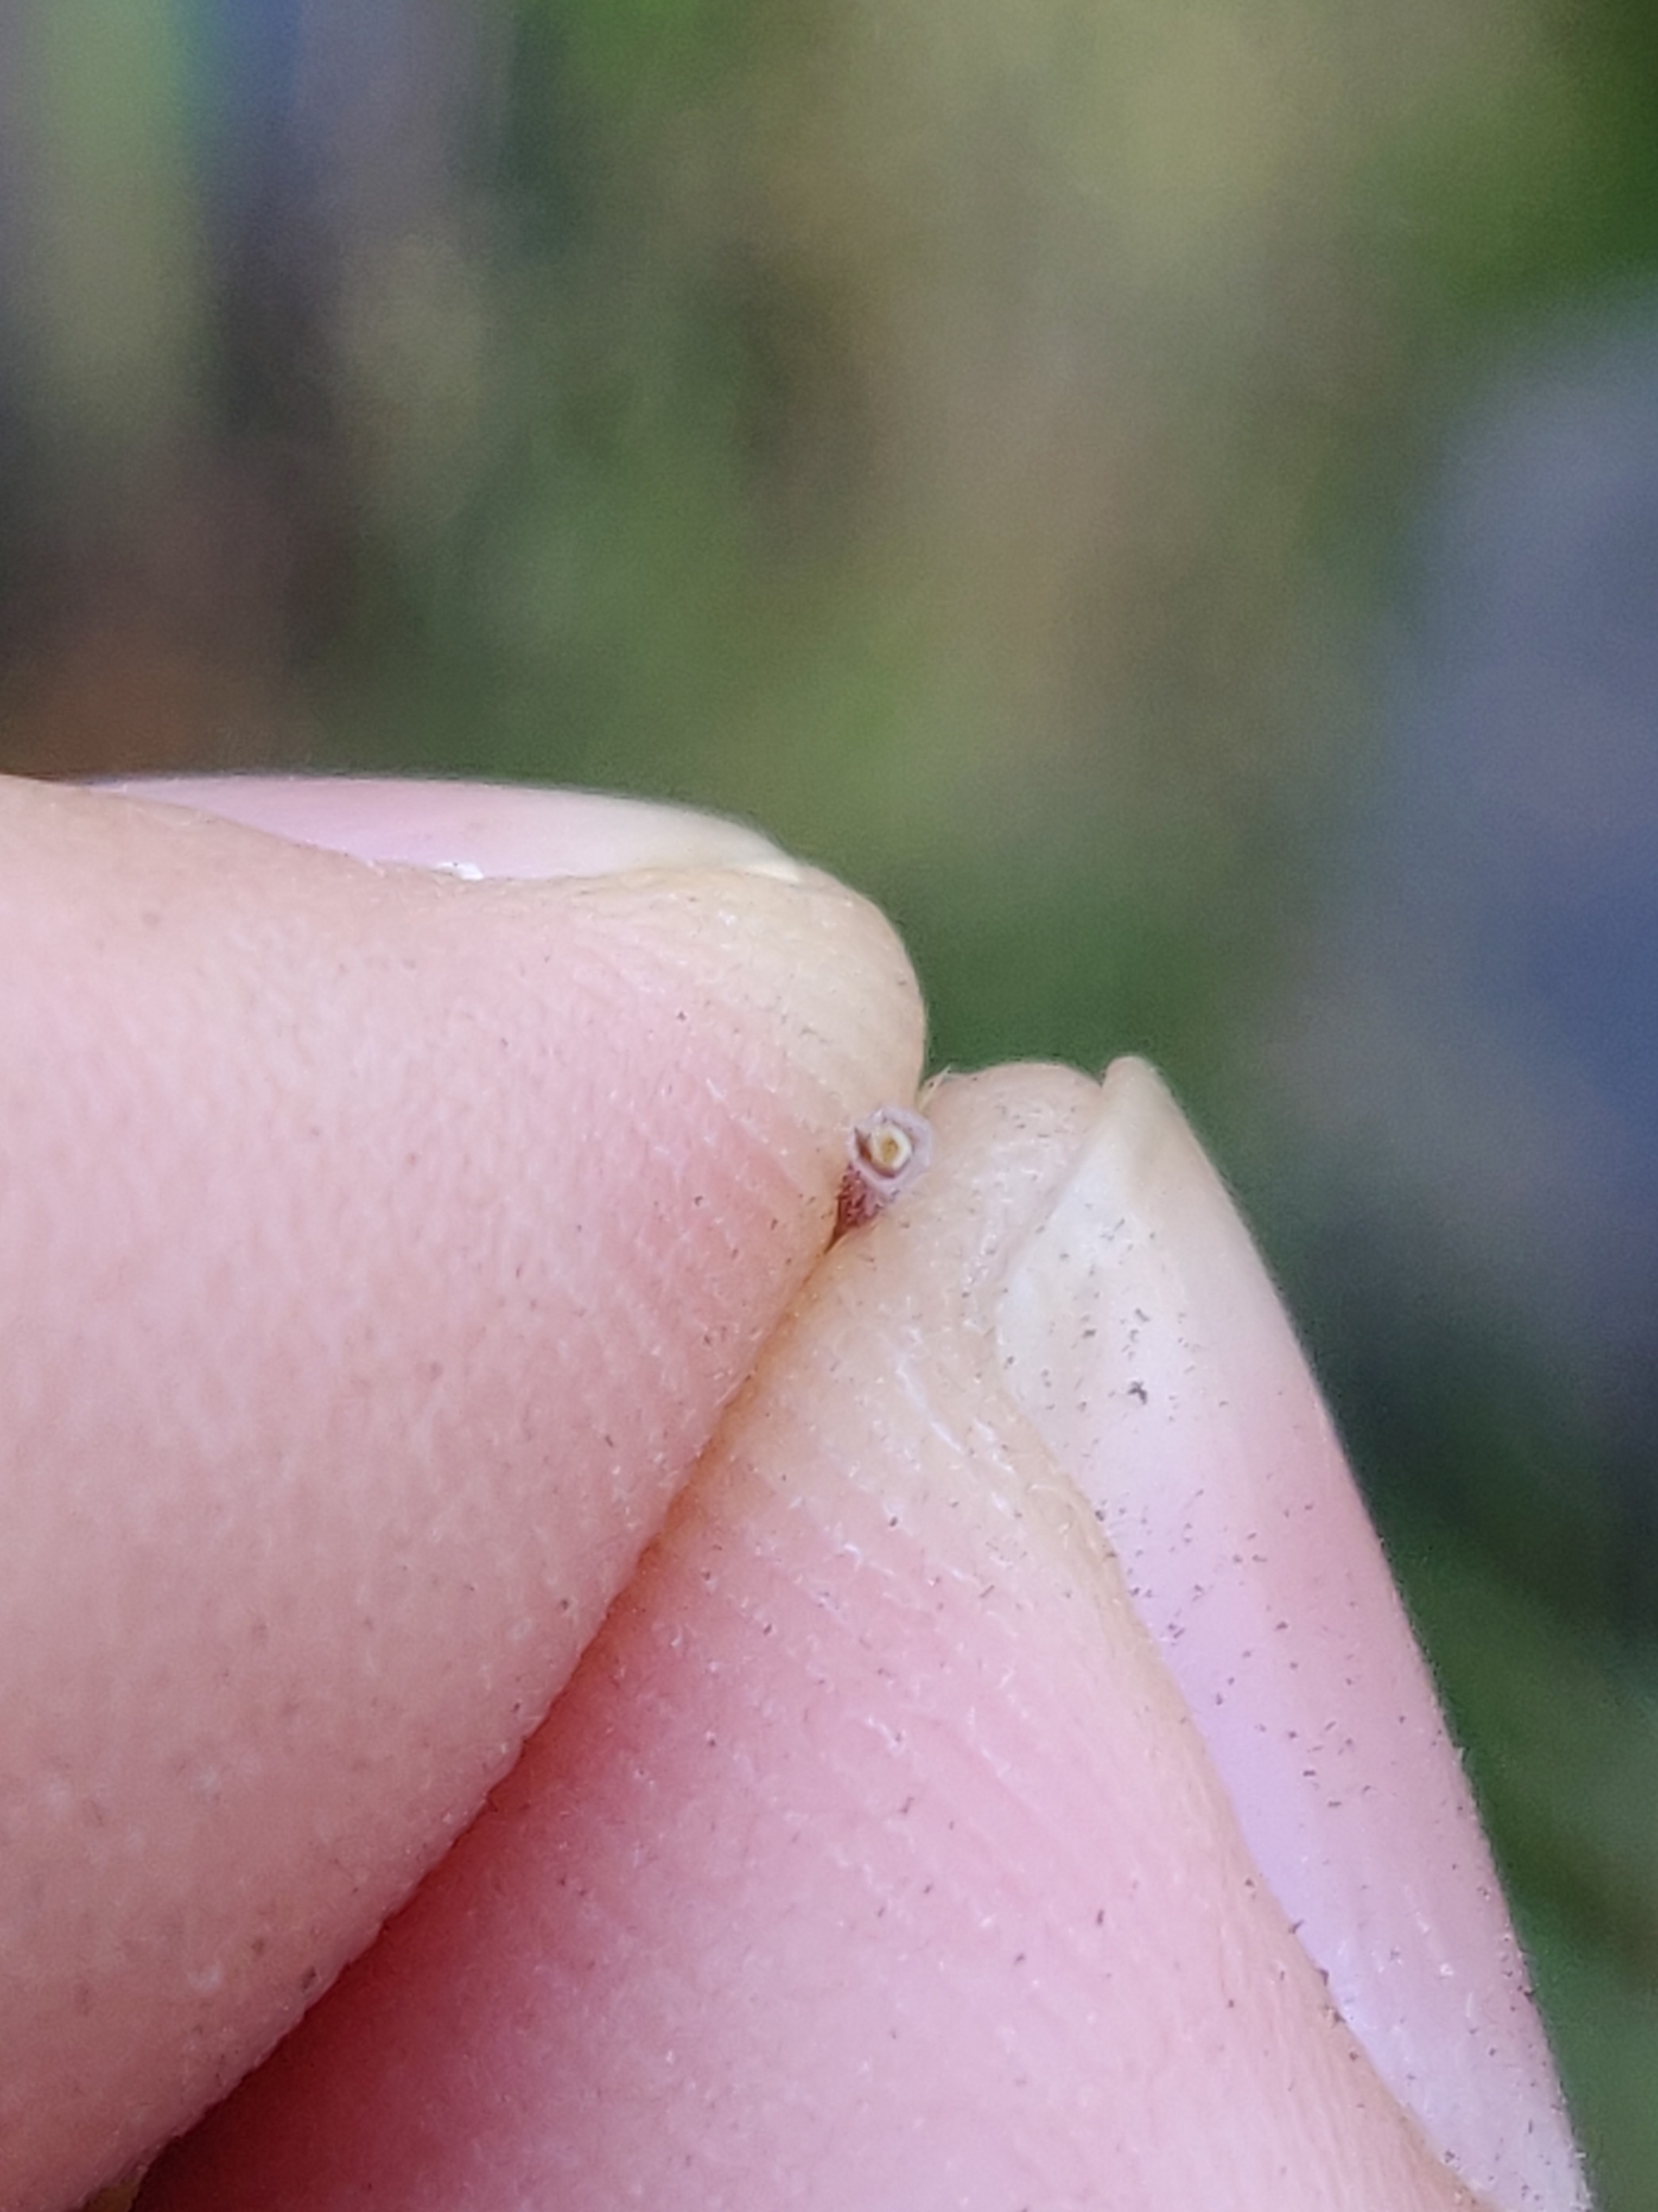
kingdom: Plantae
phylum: Tracheophyta
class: Magnoliopsida
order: Lamiales
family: Lamiaceae
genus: Thymus
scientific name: Thymus pulegioides
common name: Bredbladet timian
